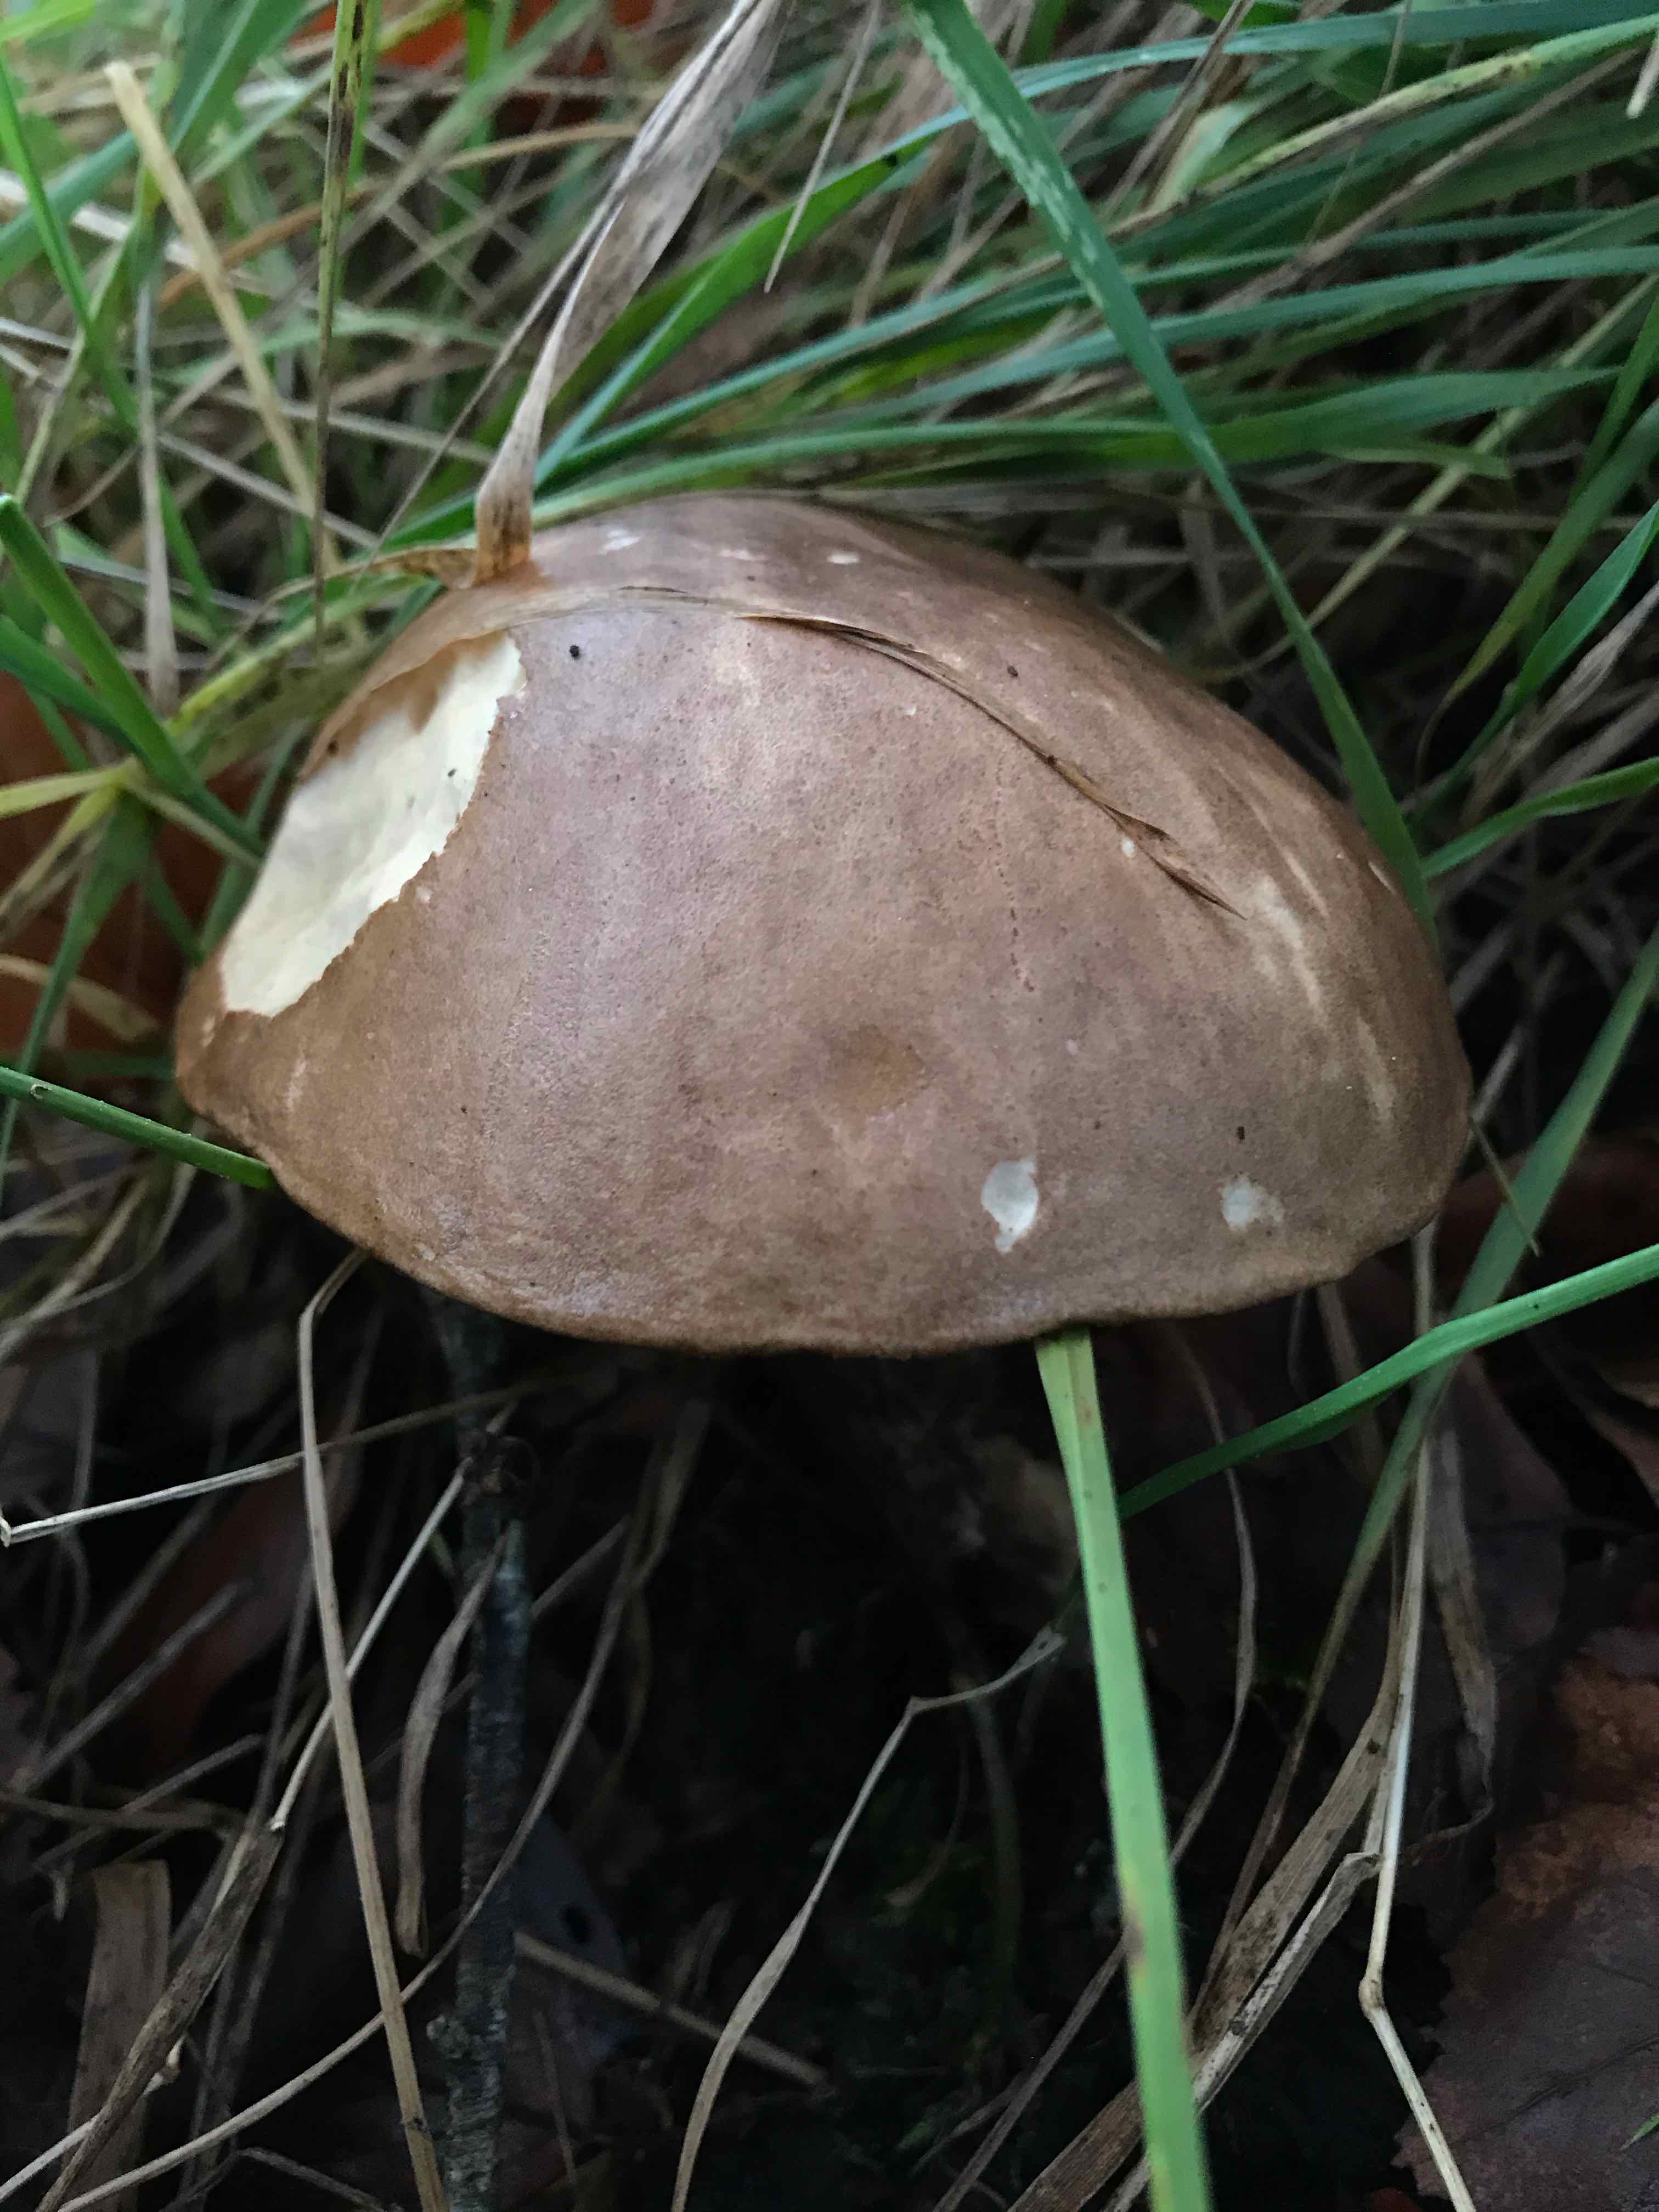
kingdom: Fungi
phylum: Basidiomycota
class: Agaricomycetes
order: Boletales
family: Boletaceae
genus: Leccinum
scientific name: Leccinum scabrum
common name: brun skælrørhat
